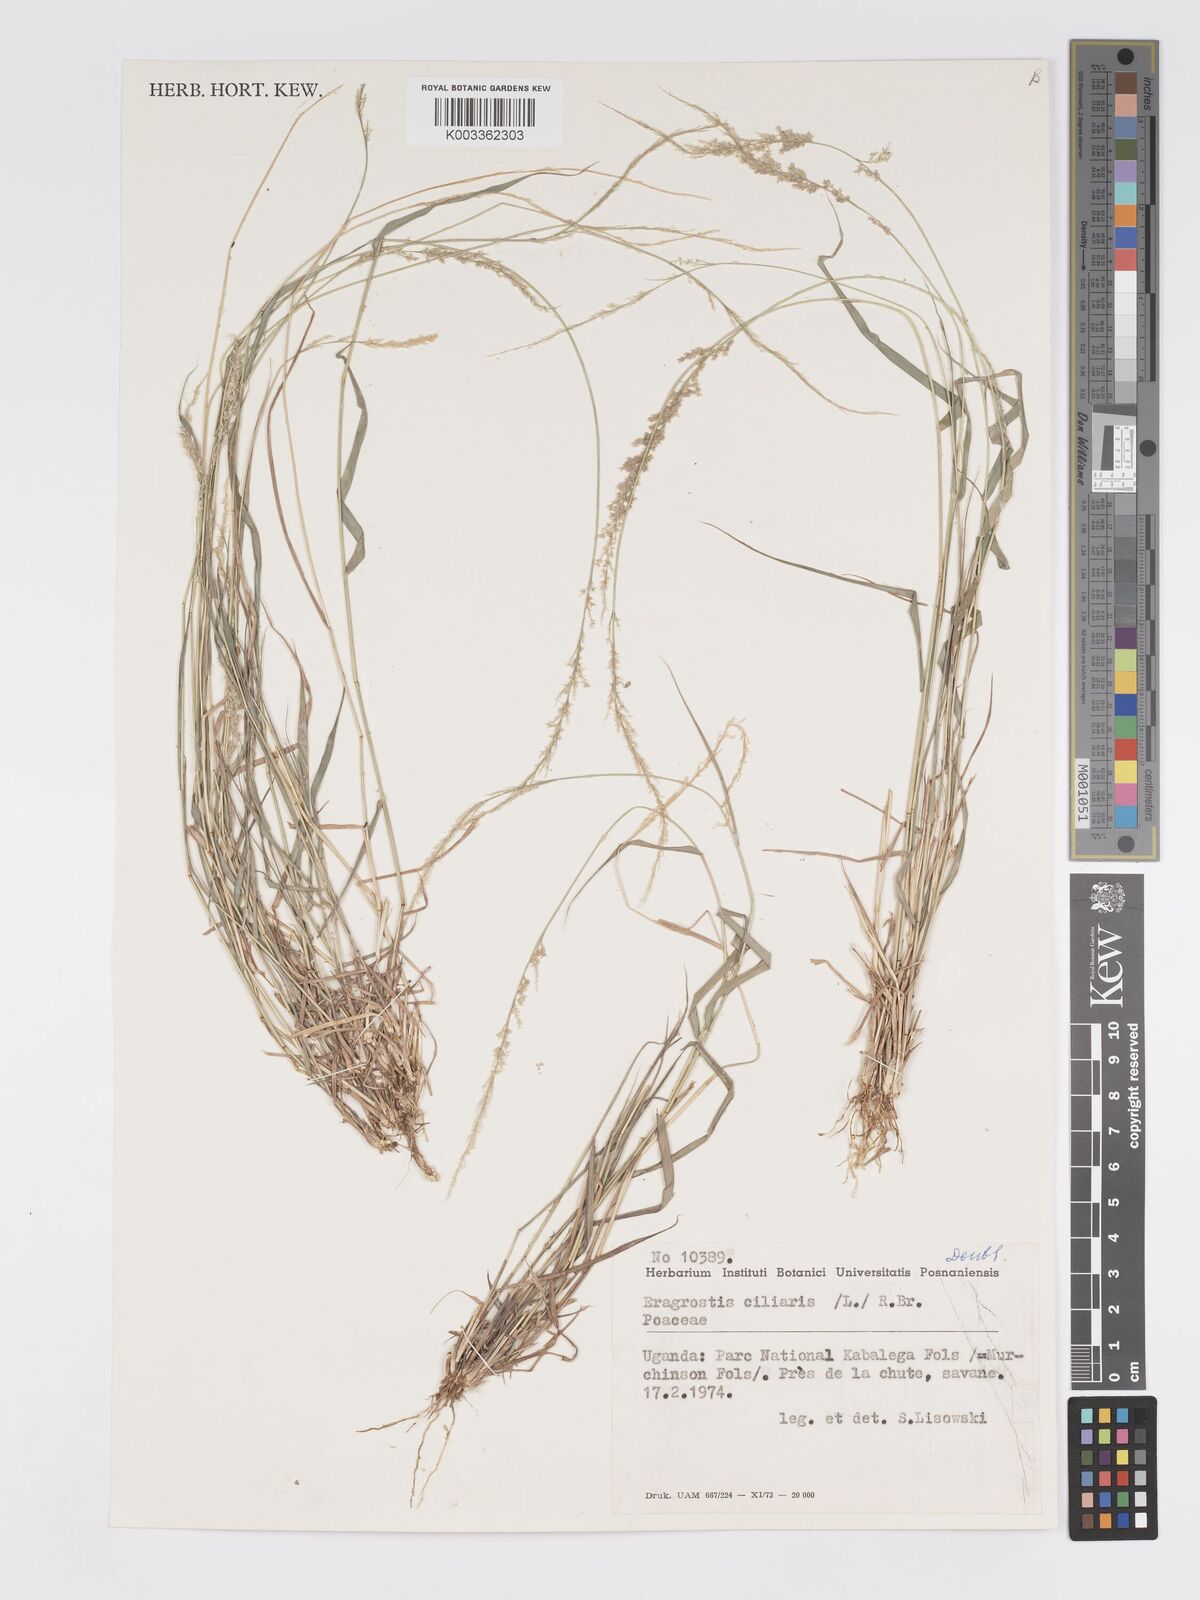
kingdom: Plantae
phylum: Tracheophyta
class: Liliopsida
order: Poales
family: Poaceae
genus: Eragrostis
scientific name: Eragrostis ciliaris
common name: Gophertail lovegrass
